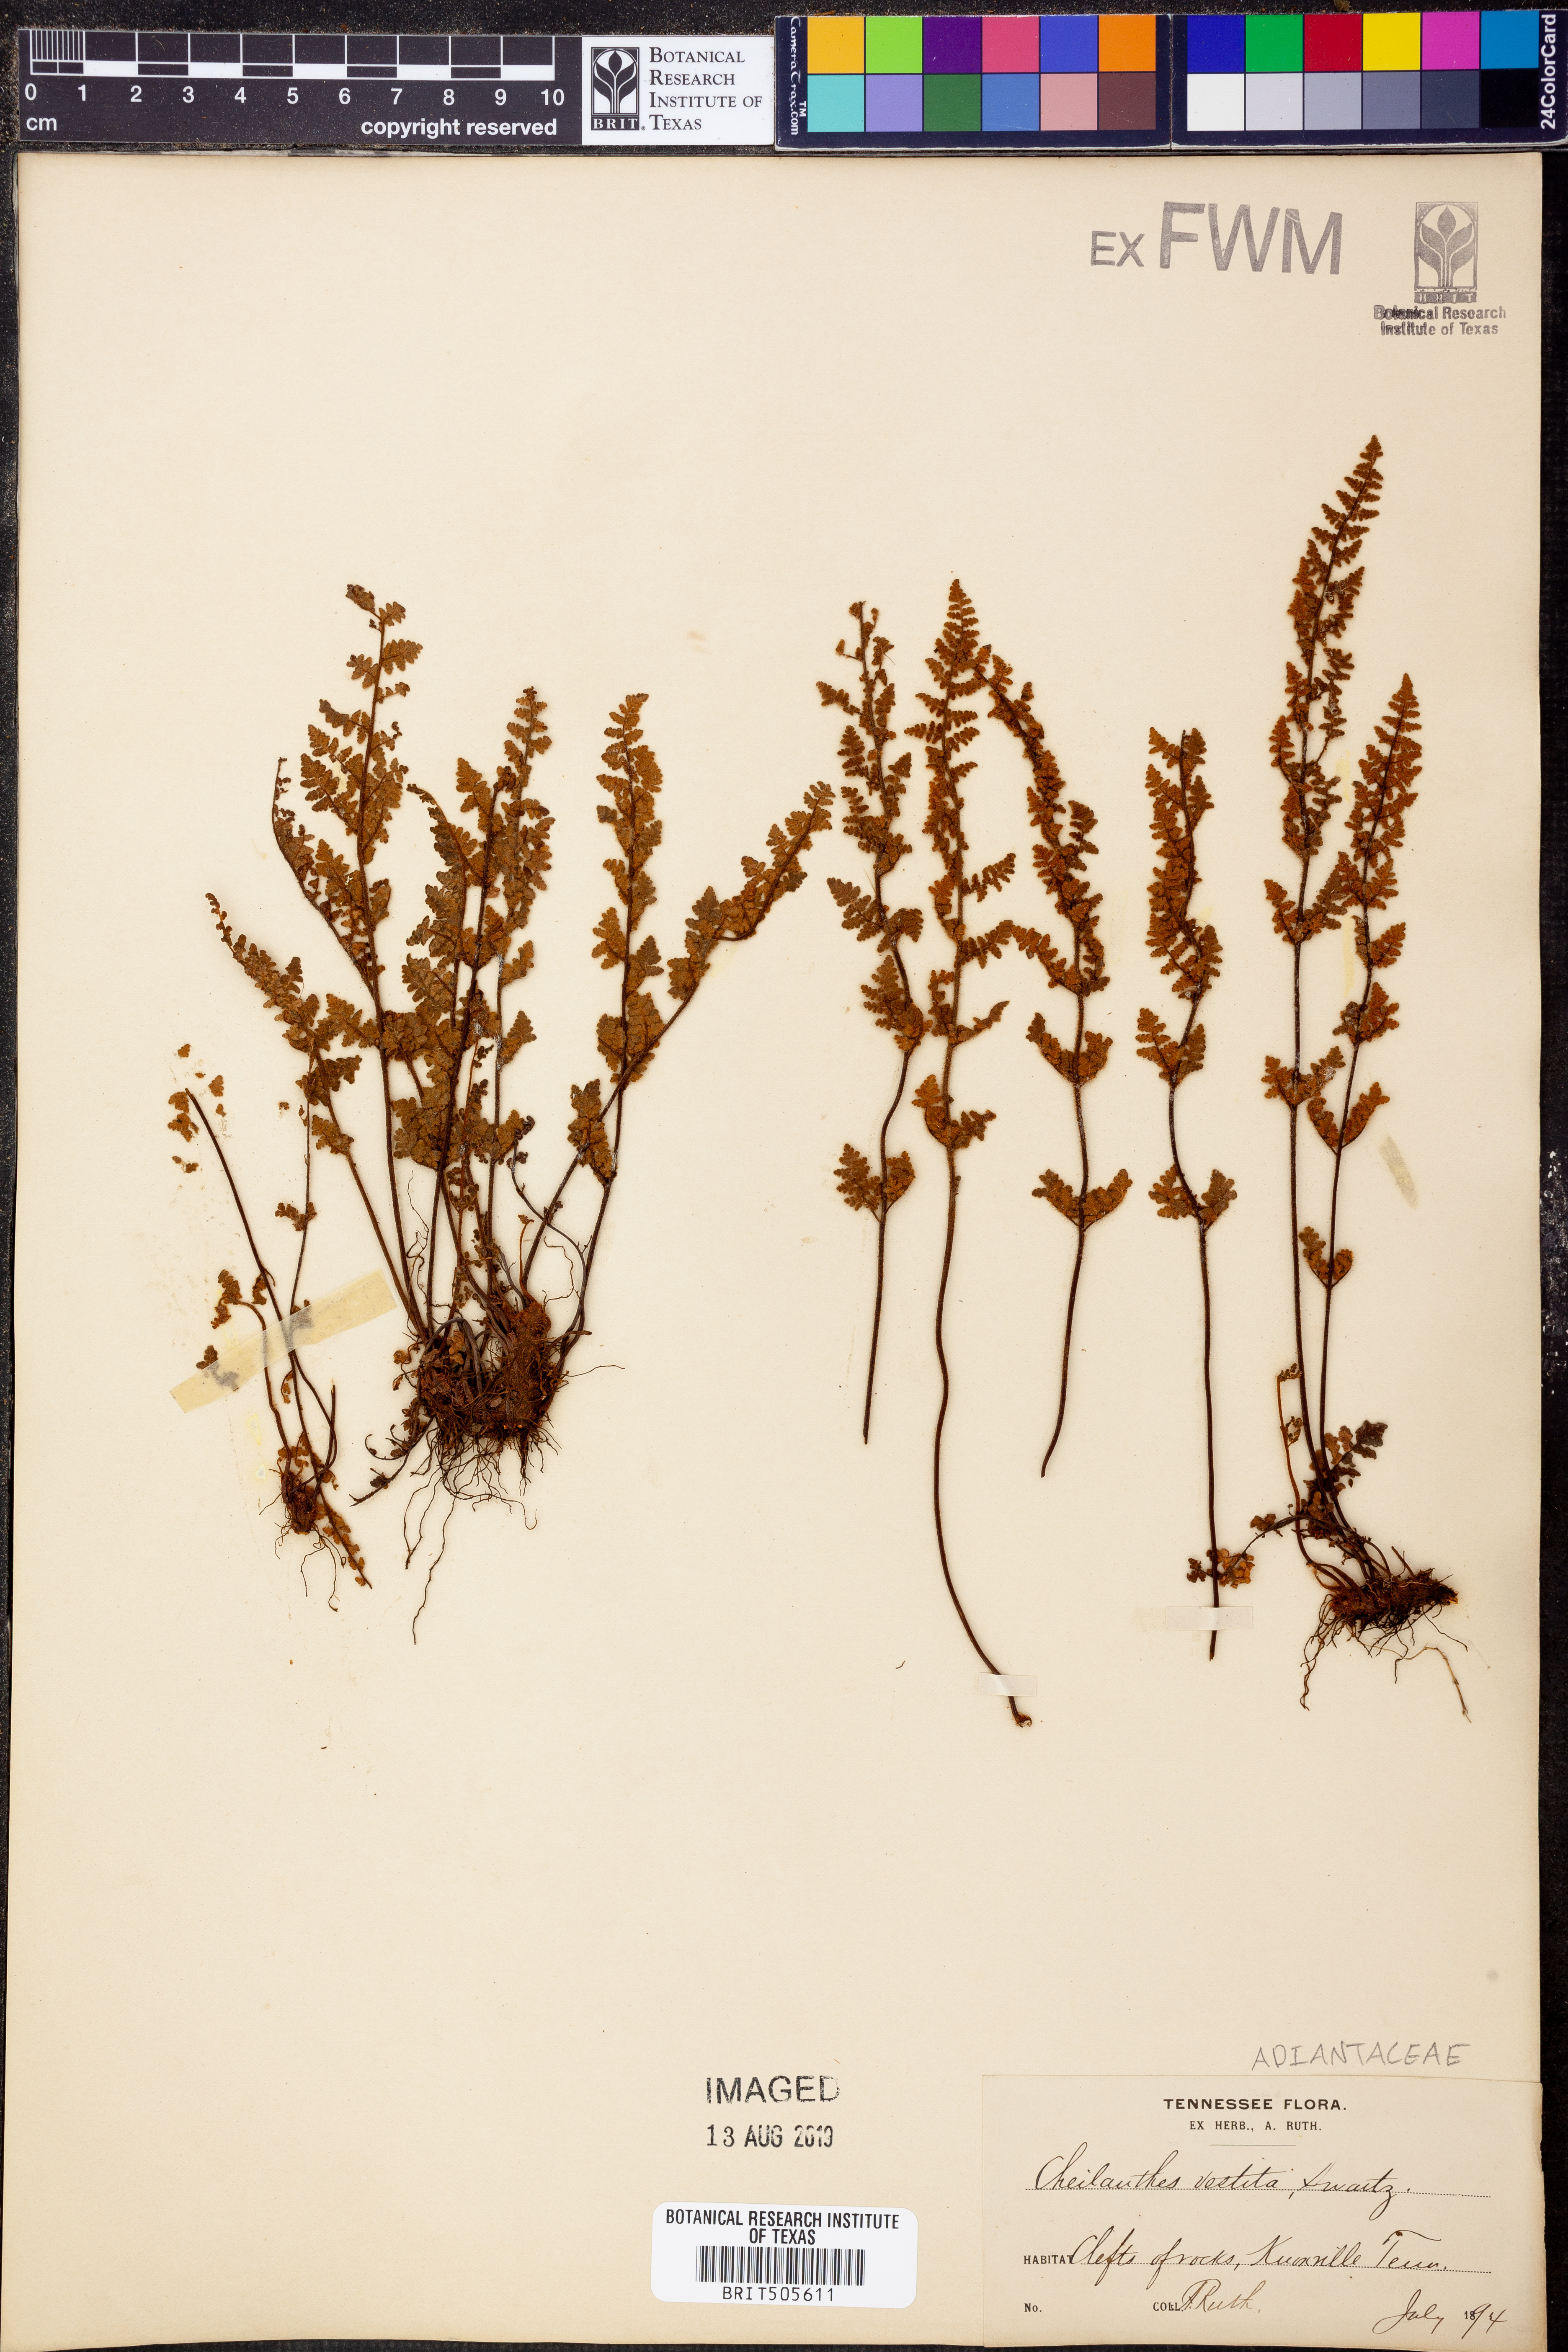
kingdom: Plantae
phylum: Tracheophyta
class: Polypodiopsida
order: Polypodiales
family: Pteridaceae
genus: Myriopteris
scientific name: Myriopteris lanosa
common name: Hairy lip fern
